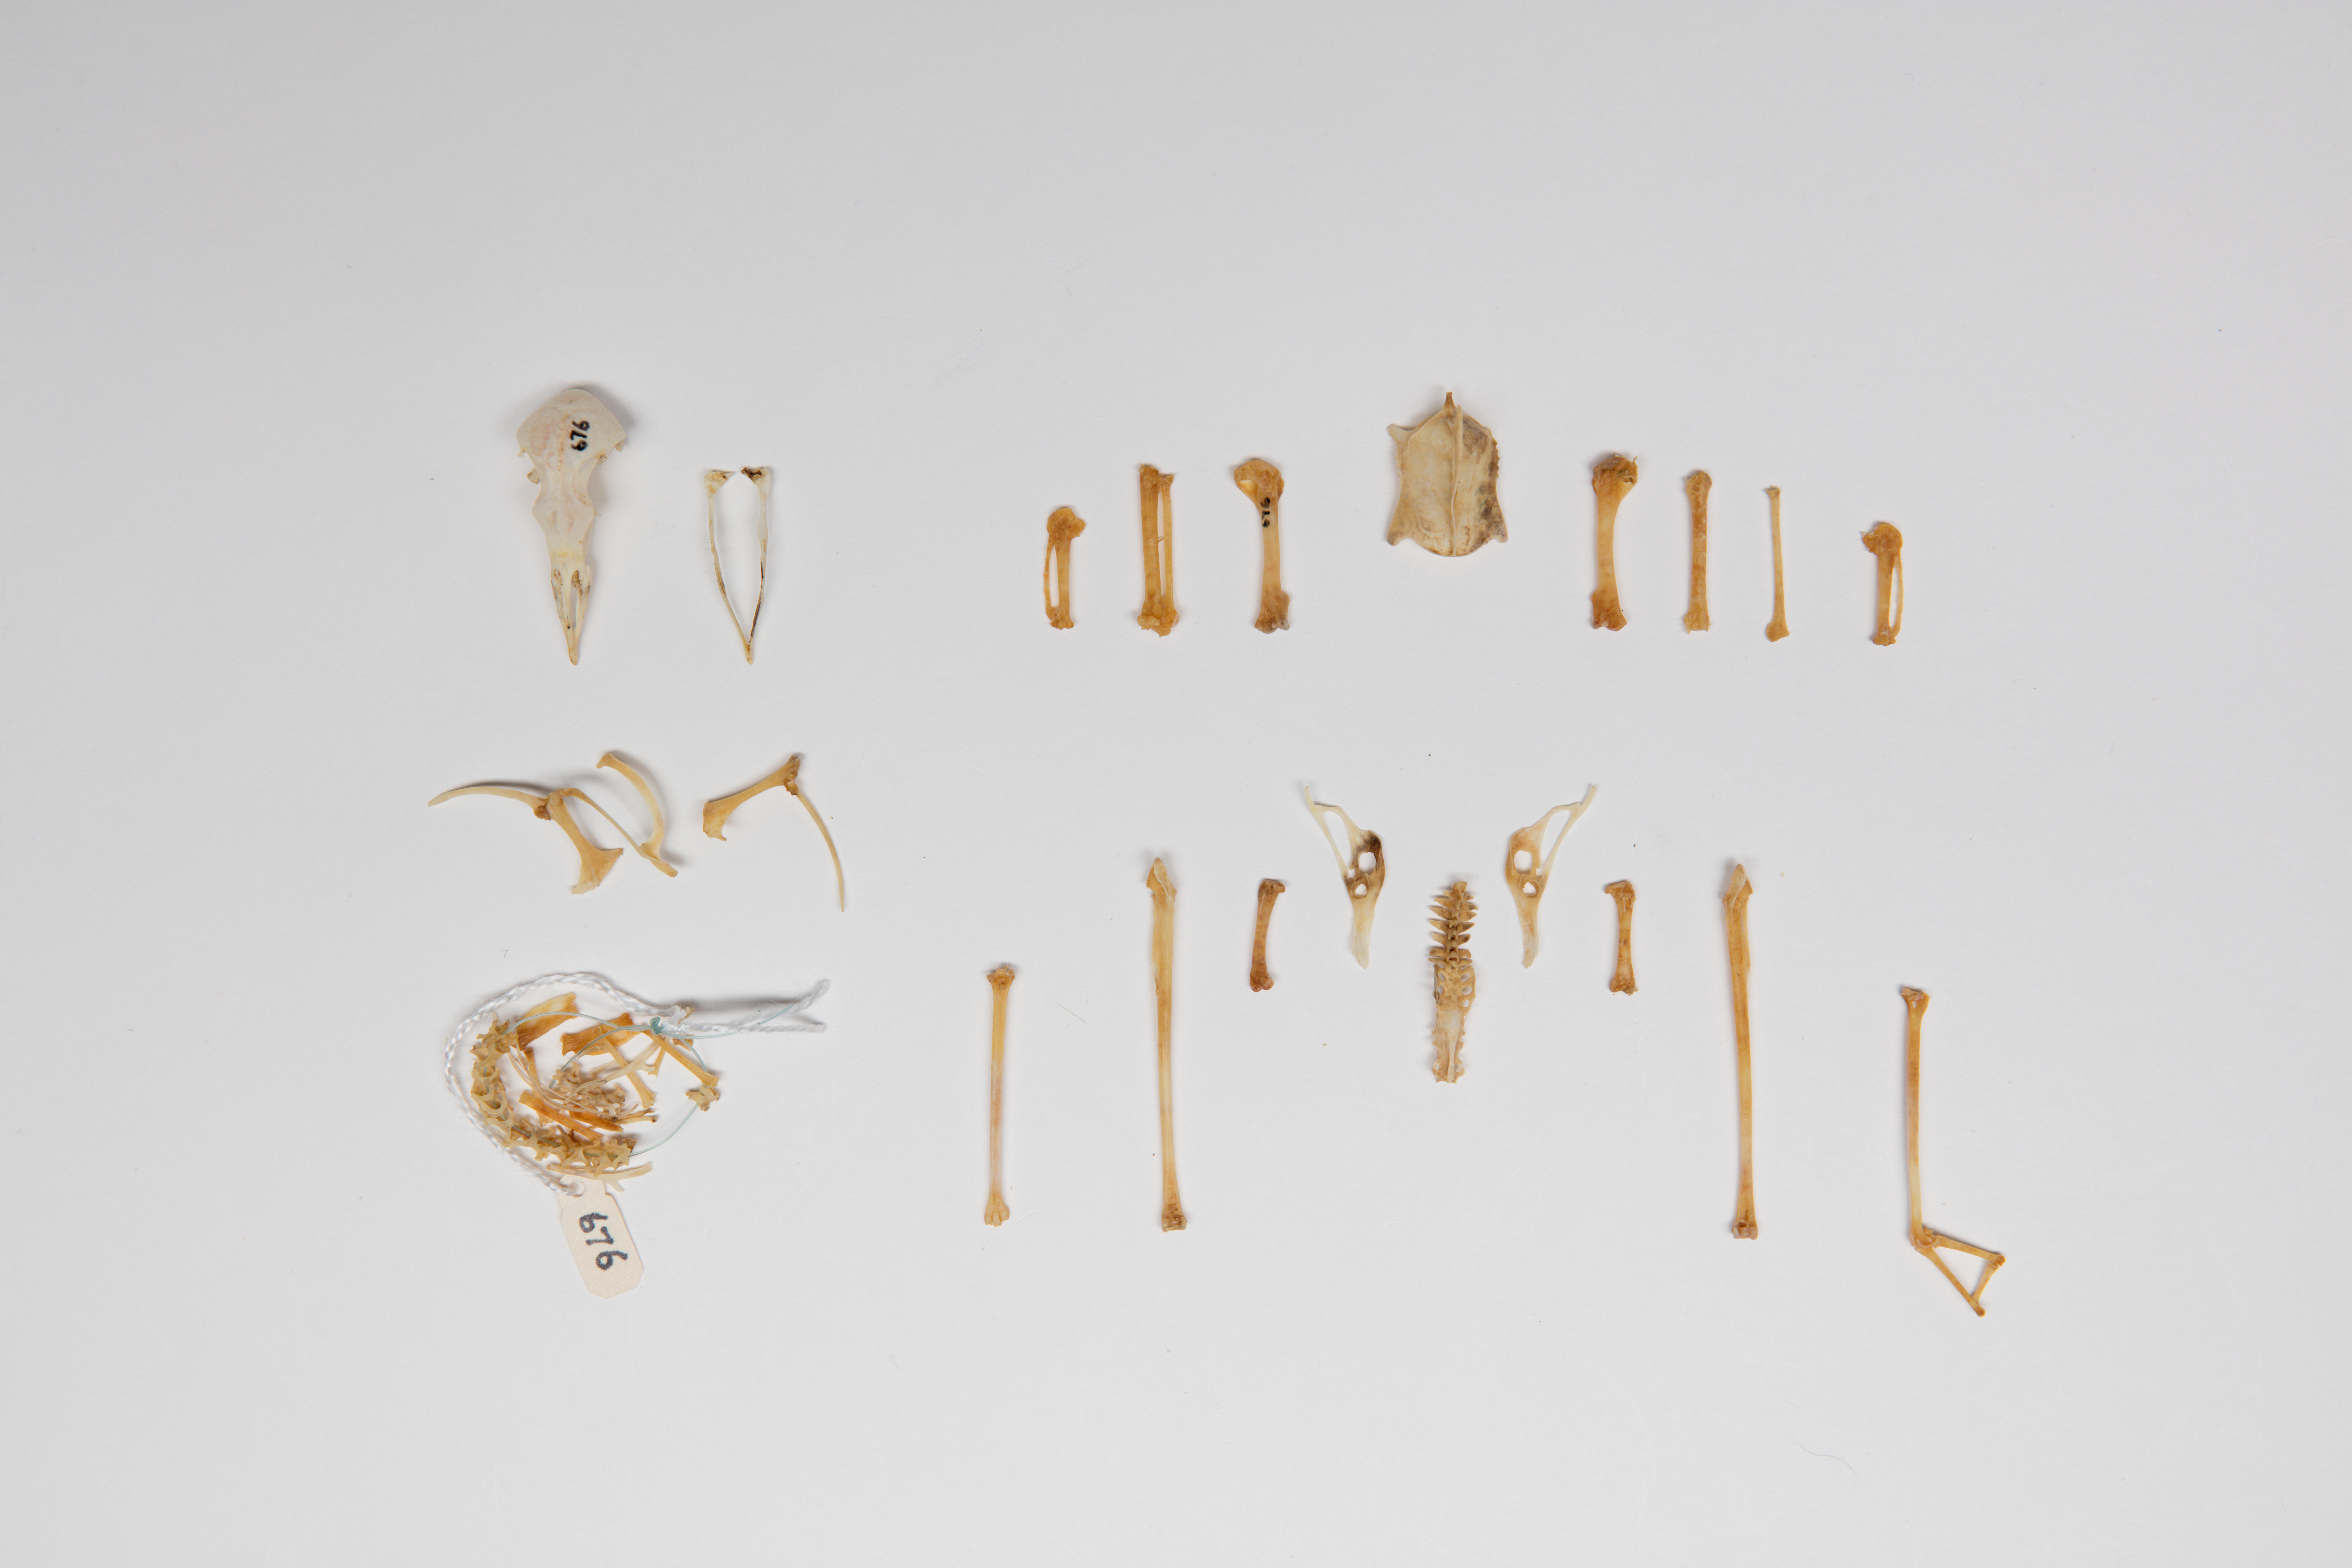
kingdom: Animalia
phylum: Chordata
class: Aves
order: Procellariiformes
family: Hydrobatidae
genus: Oceanites
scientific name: Oceanites oceanicus
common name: Wilson's storm petrel
